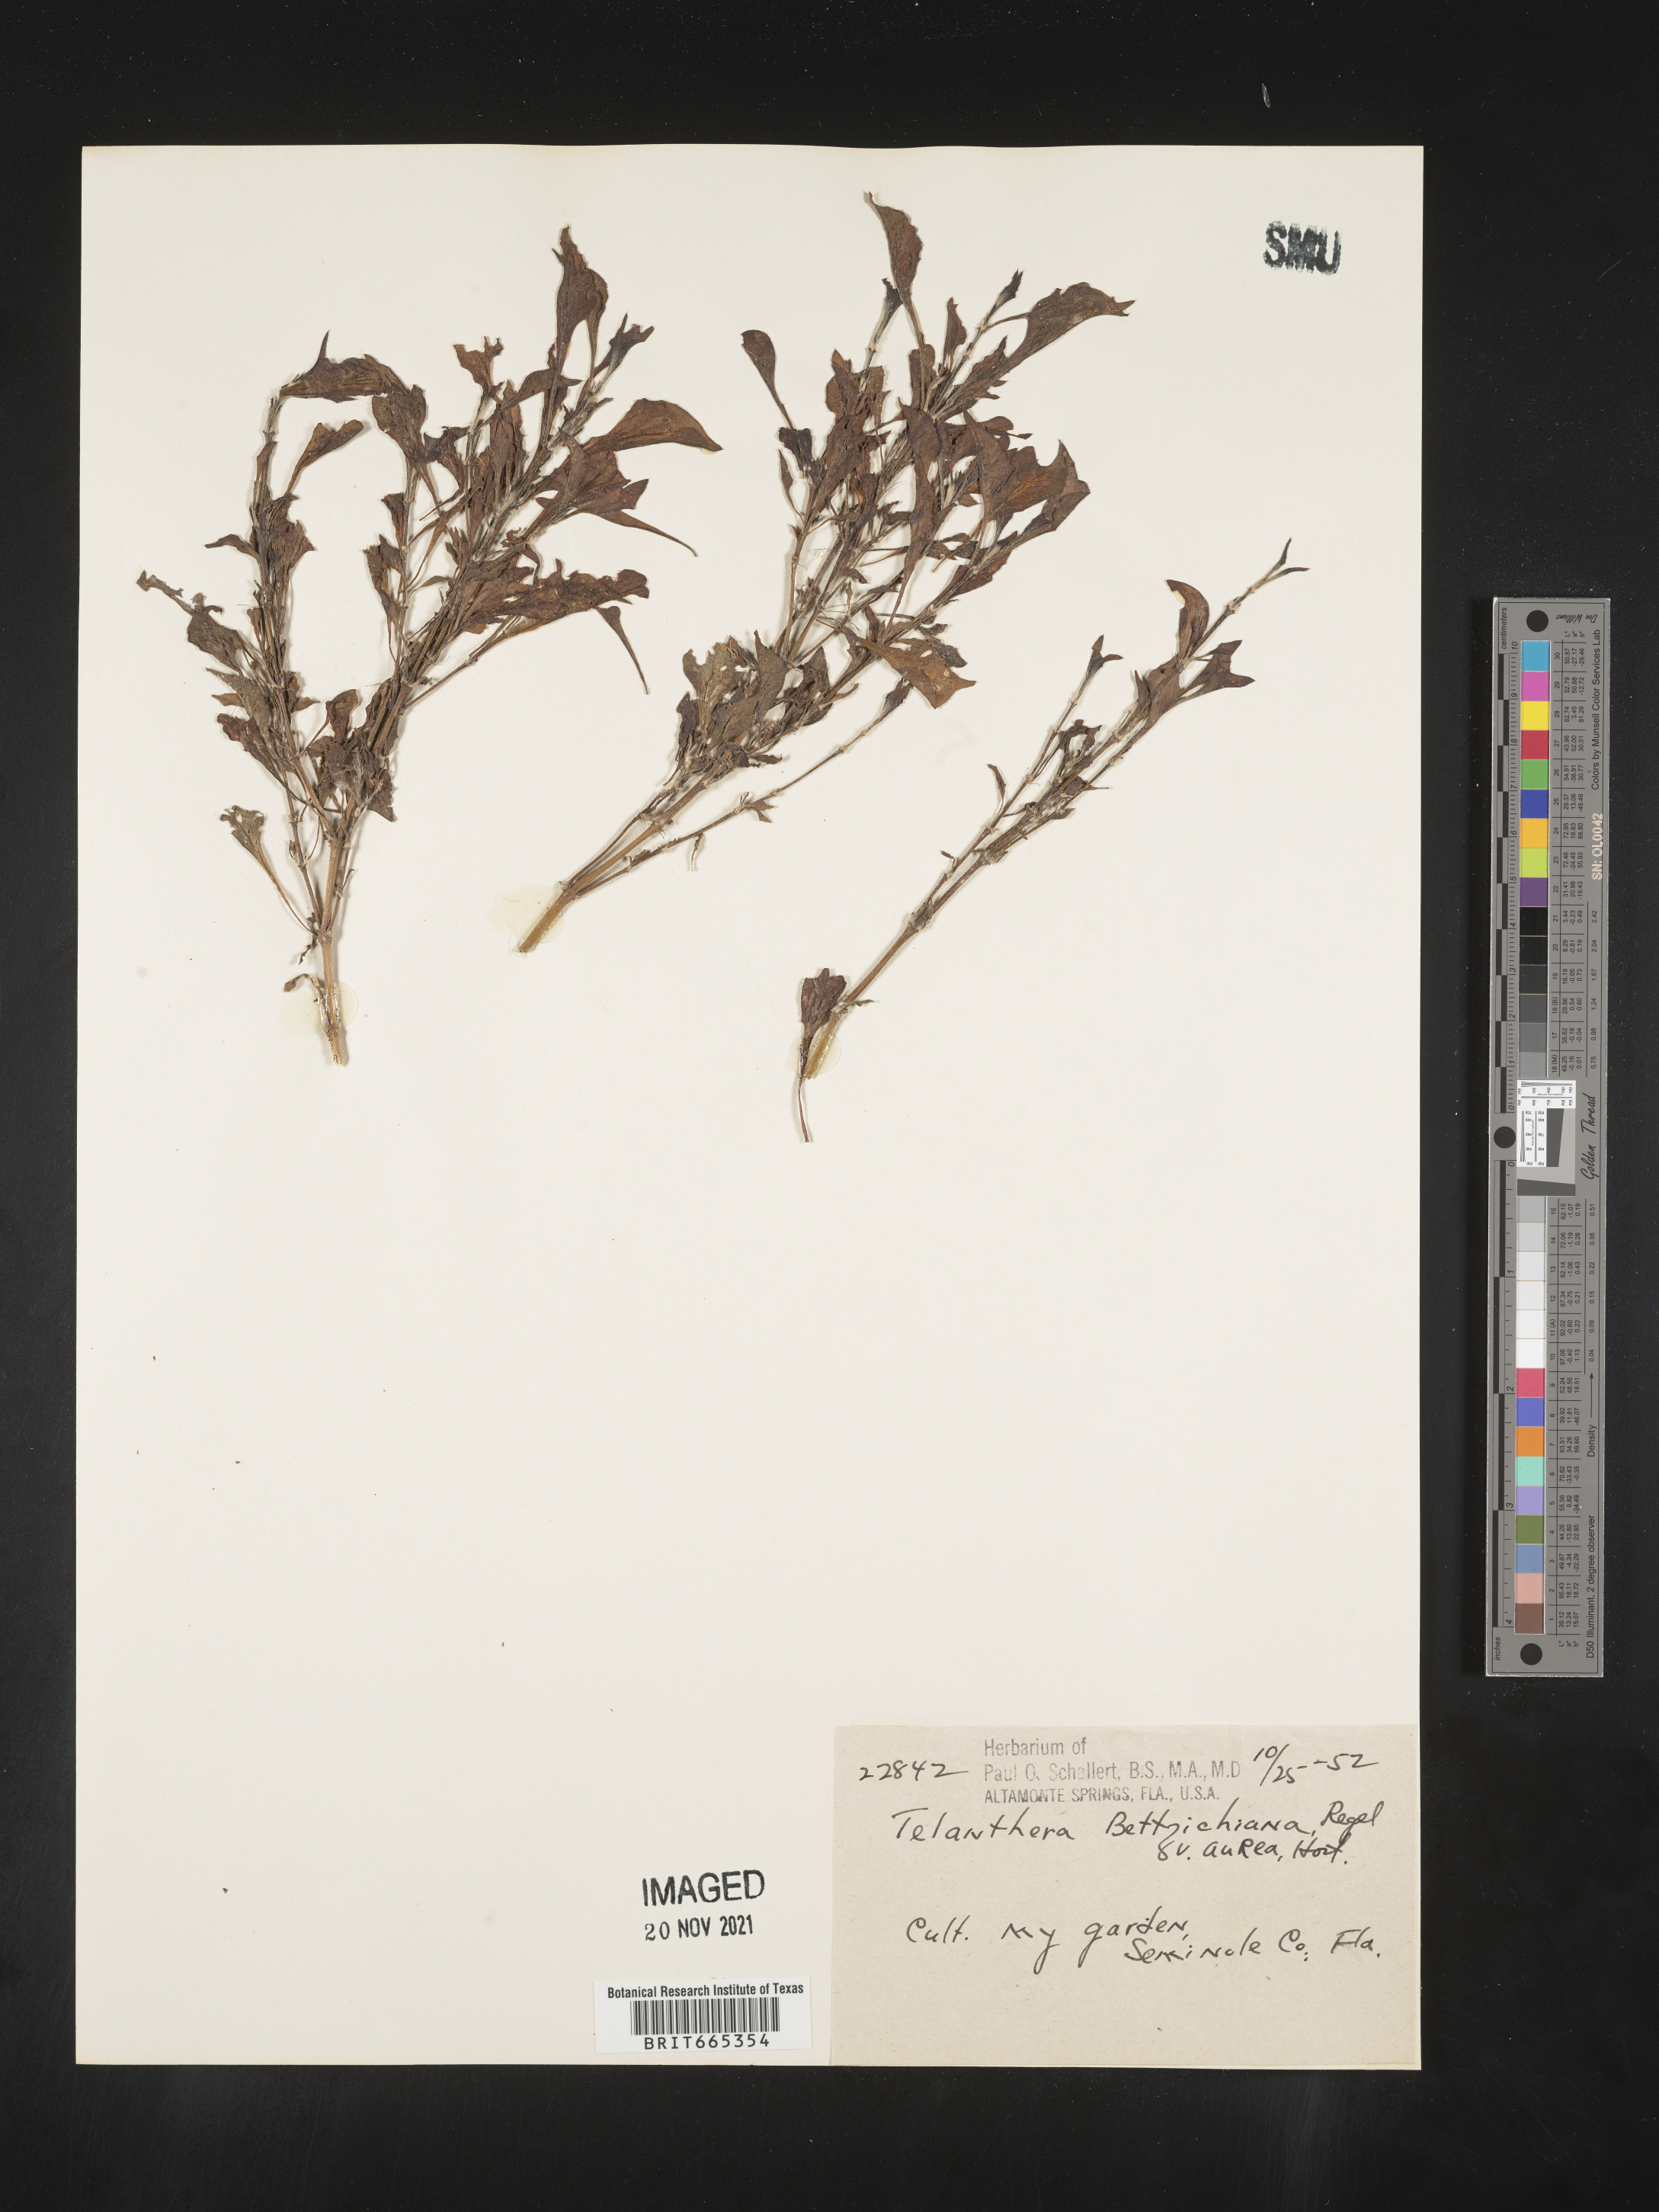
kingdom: Plantae
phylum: Tracheophyta
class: Magnoliopsida
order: Caryophyllales
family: Amaranthaceae
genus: Alternanthera
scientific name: Alternanthera
